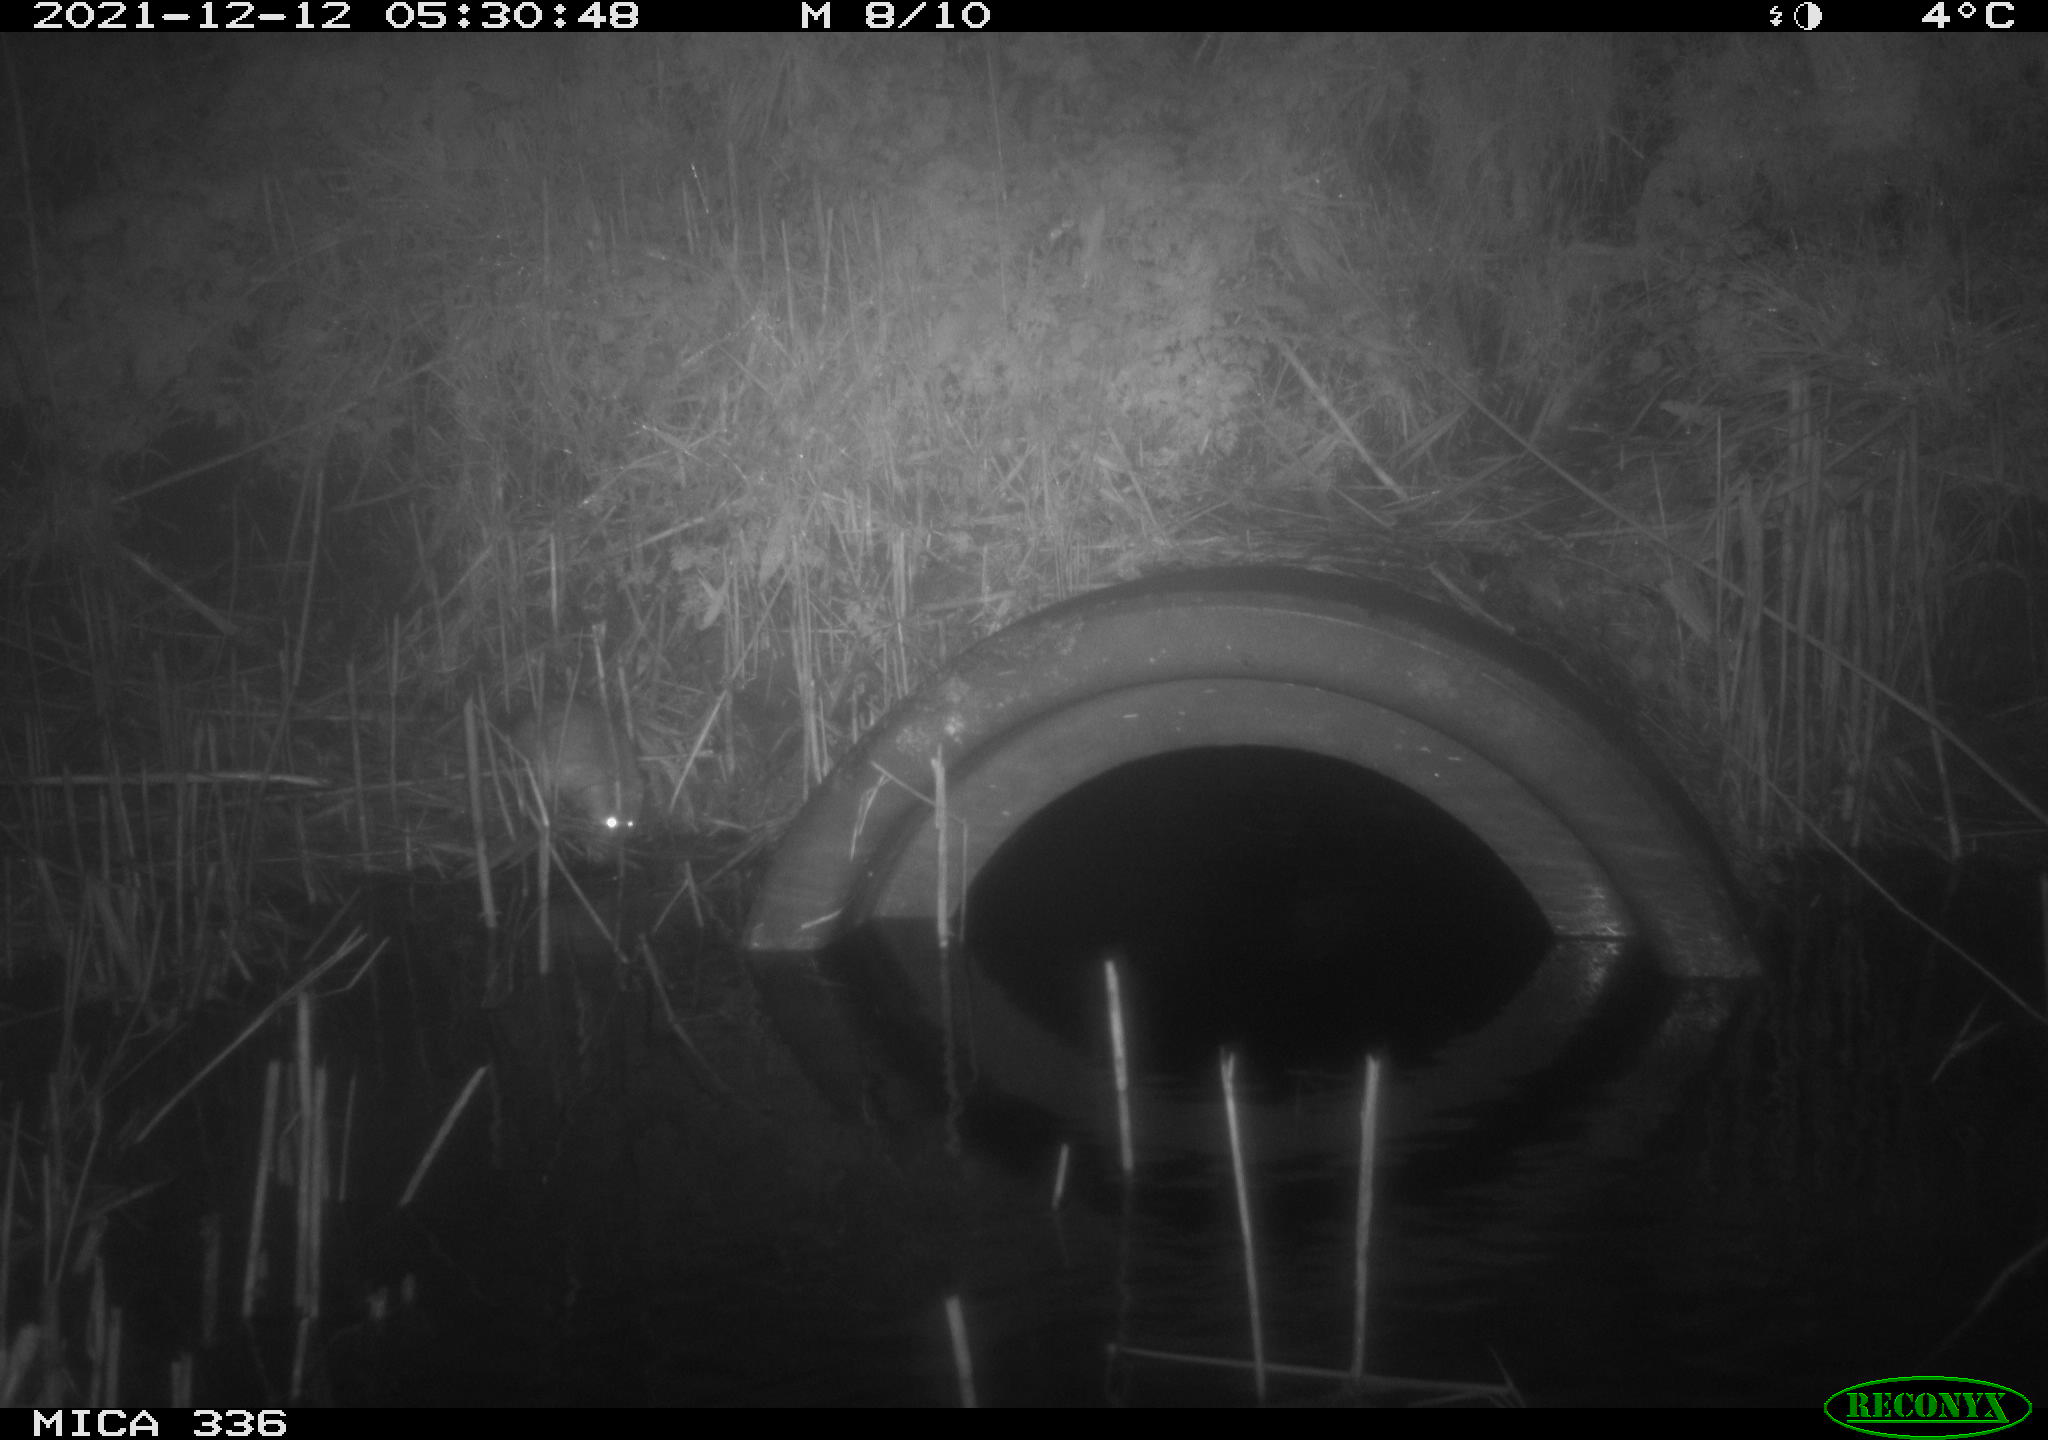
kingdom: Animalia
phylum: Chordata
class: Mammalia
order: Rodentia
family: Muridae
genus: Rattus
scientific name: Rattus norvegicus
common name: Brown rat
